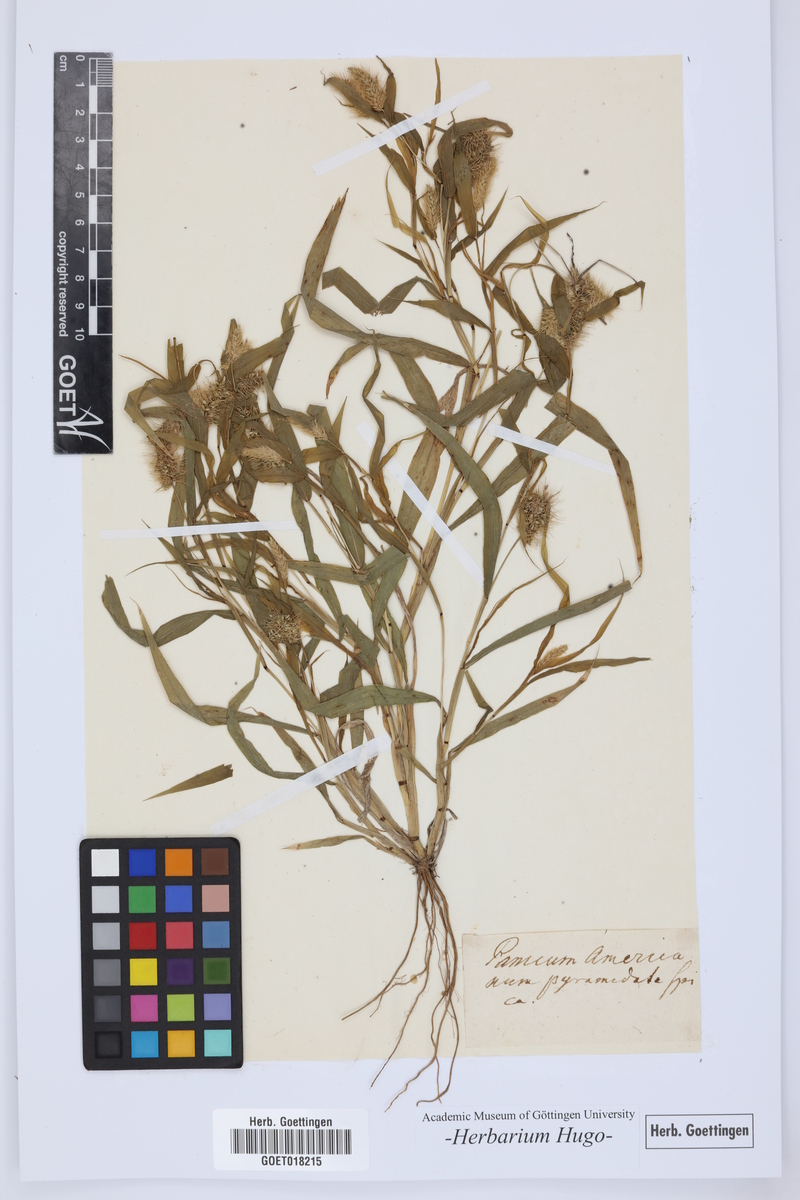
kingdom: Plantae
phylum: Tracheophyta
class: Liliopsida
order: Poales
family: Poaceae
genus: Panicum
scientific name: Panicum
